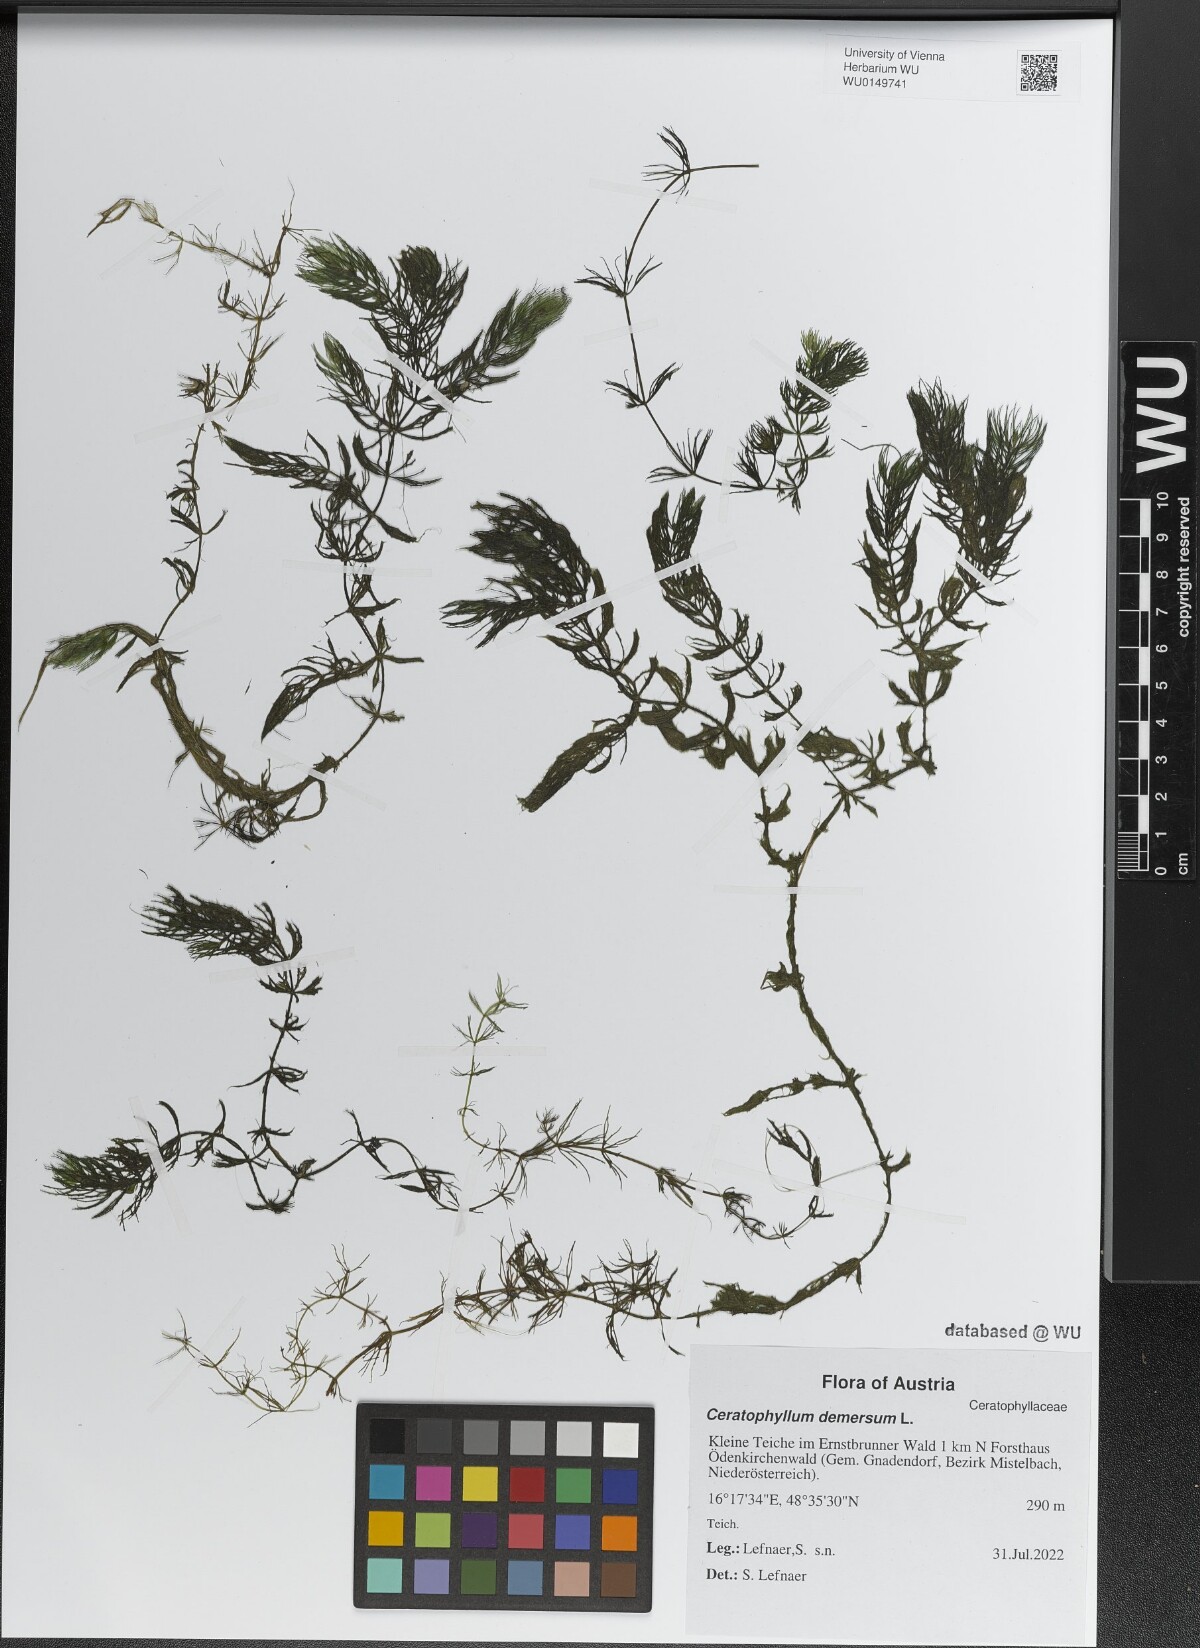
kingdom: Plantae
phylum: Tracheophyta
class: Magnoliopsida
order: Ceratophyllales
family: Ceratophyllaceae
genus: Ceratophyllum
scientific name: Ceratophyllum demersum
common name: Rigid hornwort
